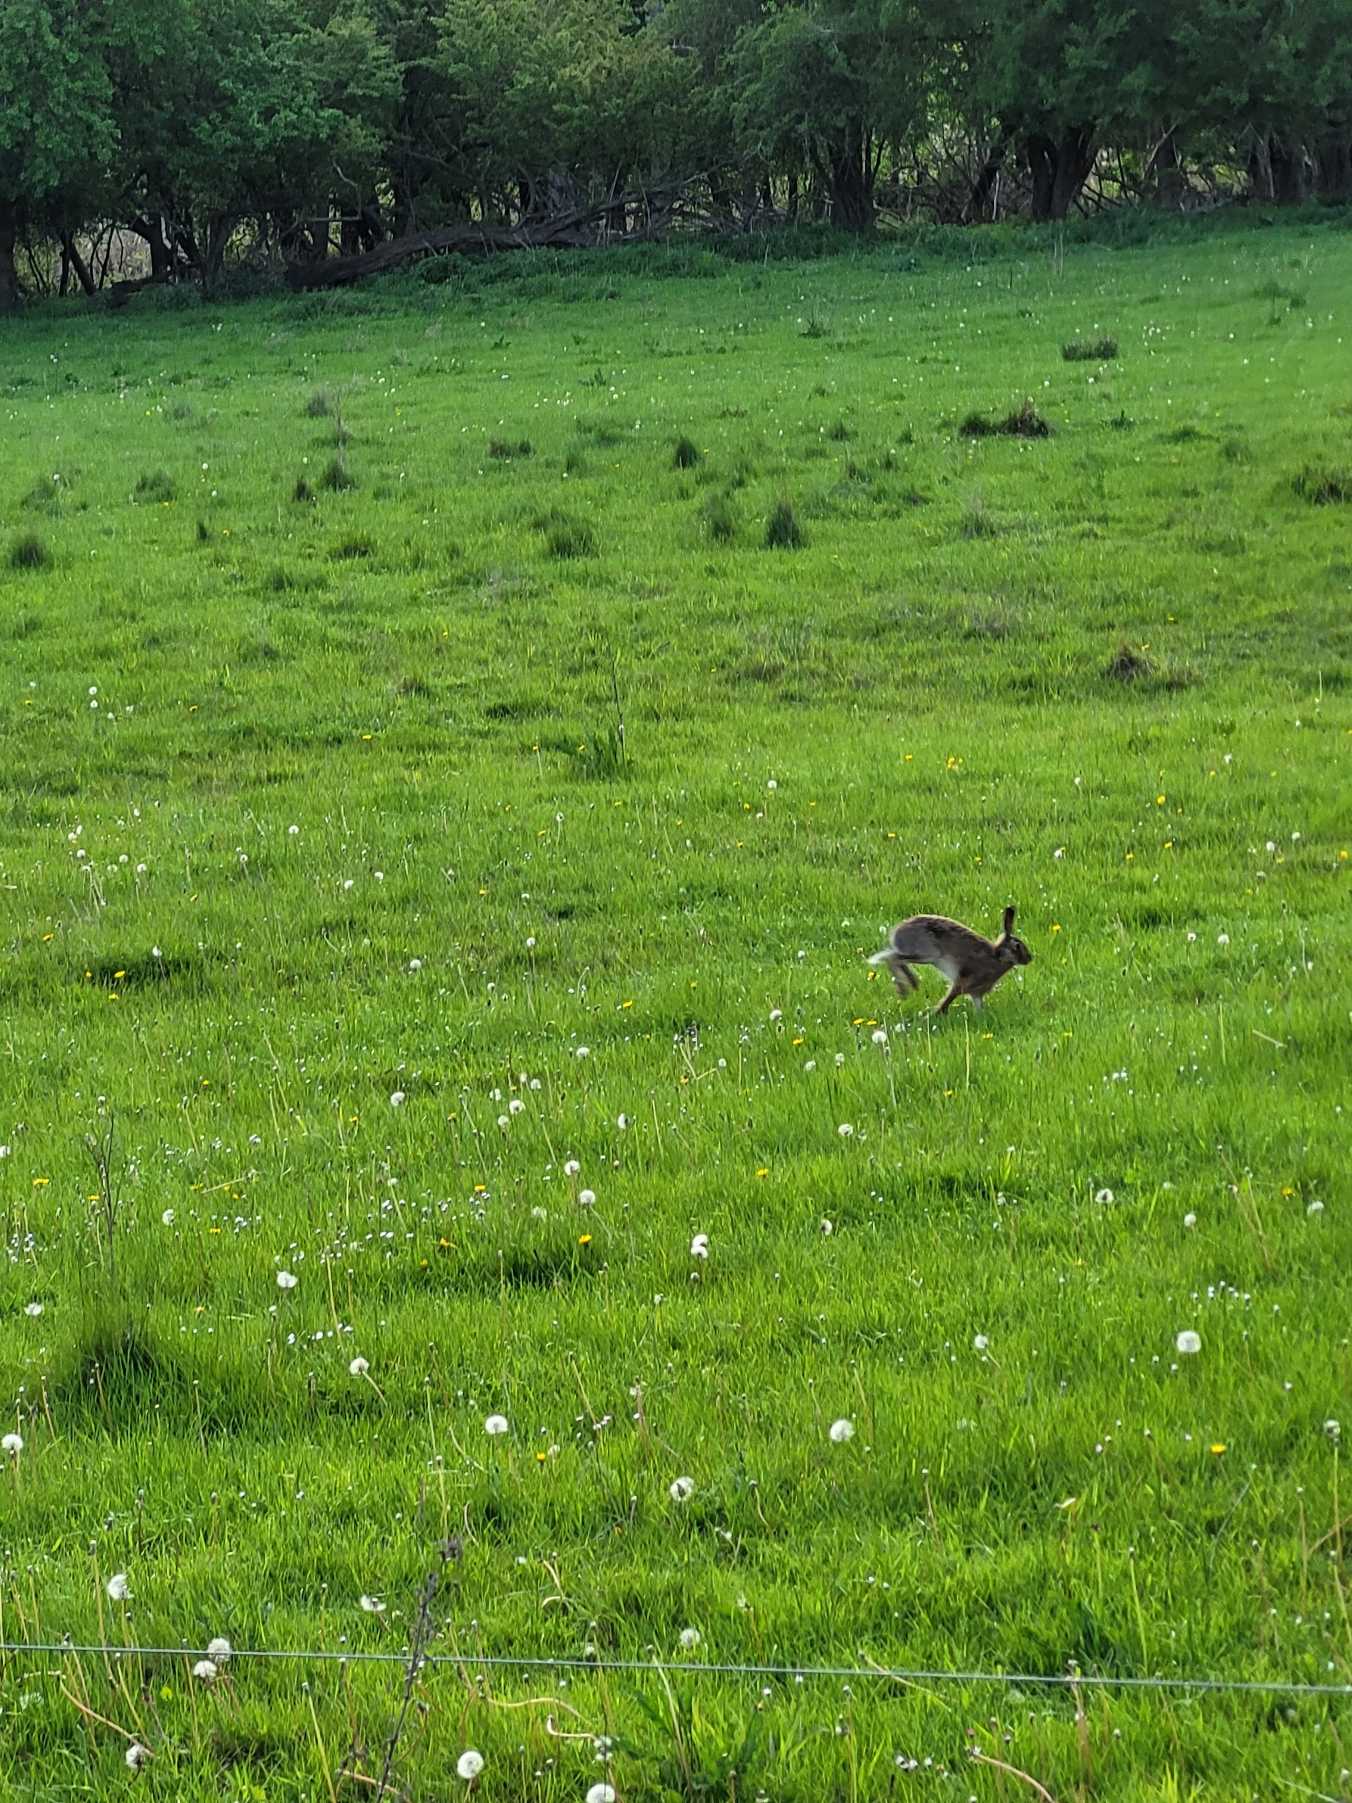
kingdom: Animalia
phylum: Chordata
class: Mammalia
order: Lagomorpha
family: Leporidae
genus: Lepus
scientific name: Lepus europaeus
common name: Hare
